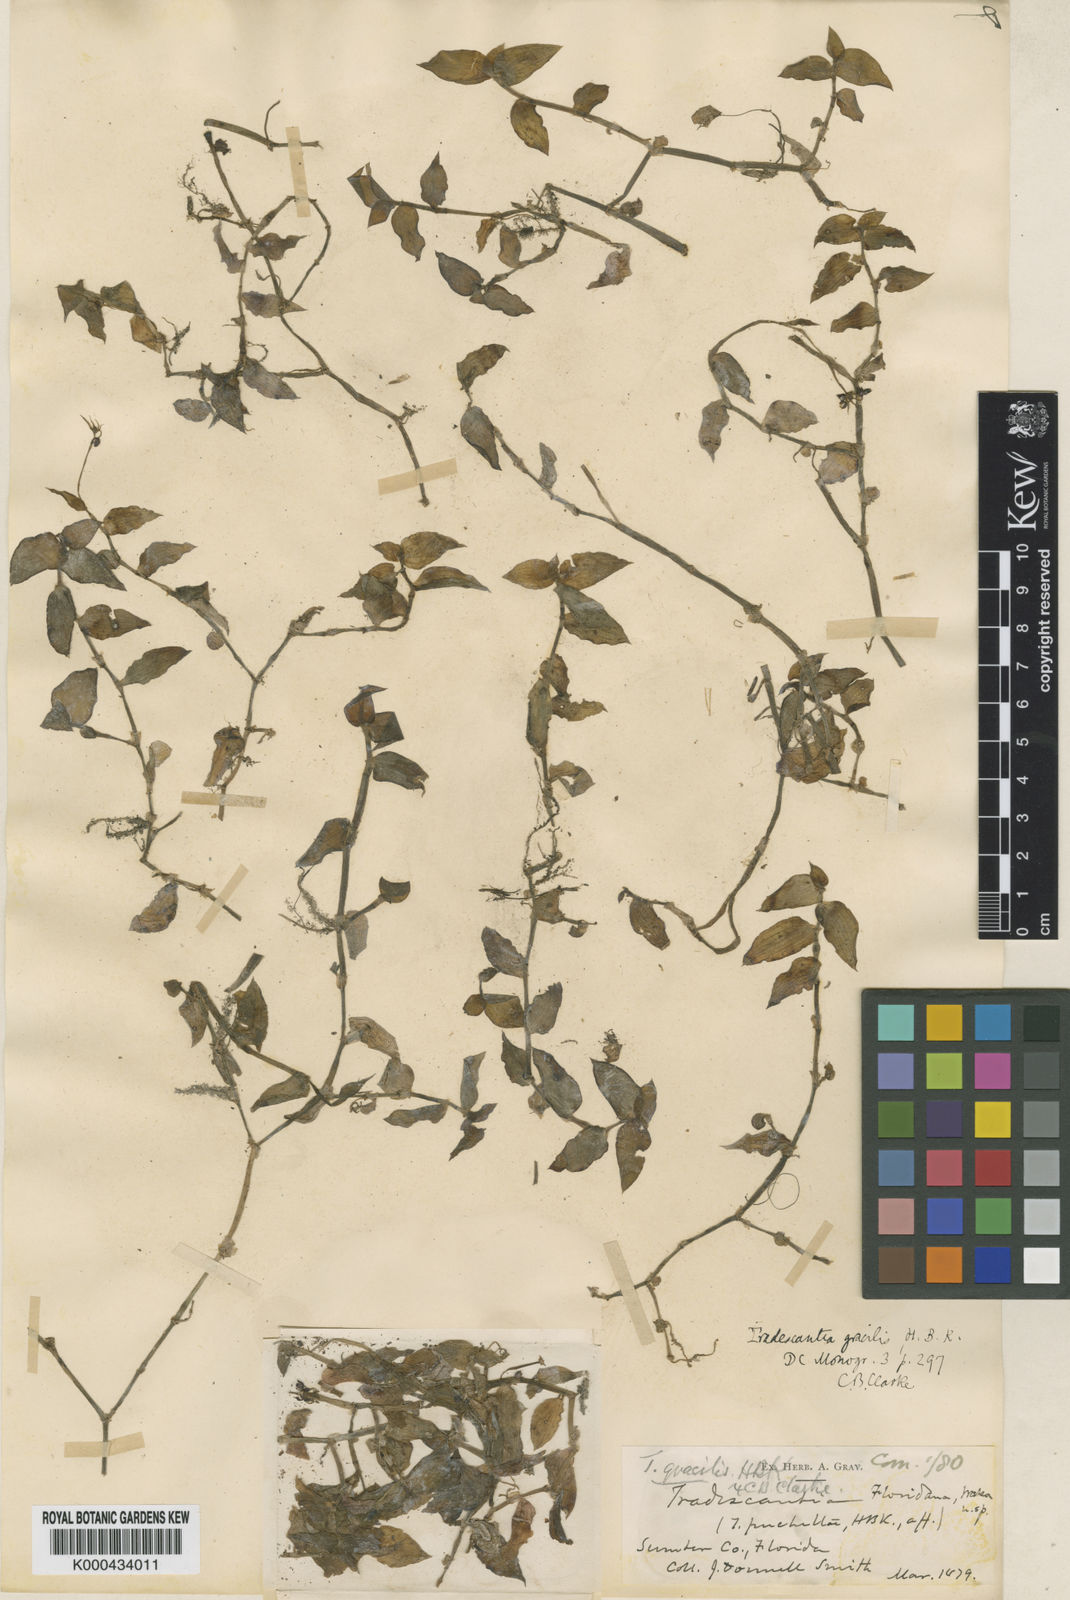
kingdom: Plantae
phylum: Tracheophyta
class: Liliopsida
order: Commelinales
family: Commelinaceae
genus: Callisia
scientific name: Callisia cordifolia
